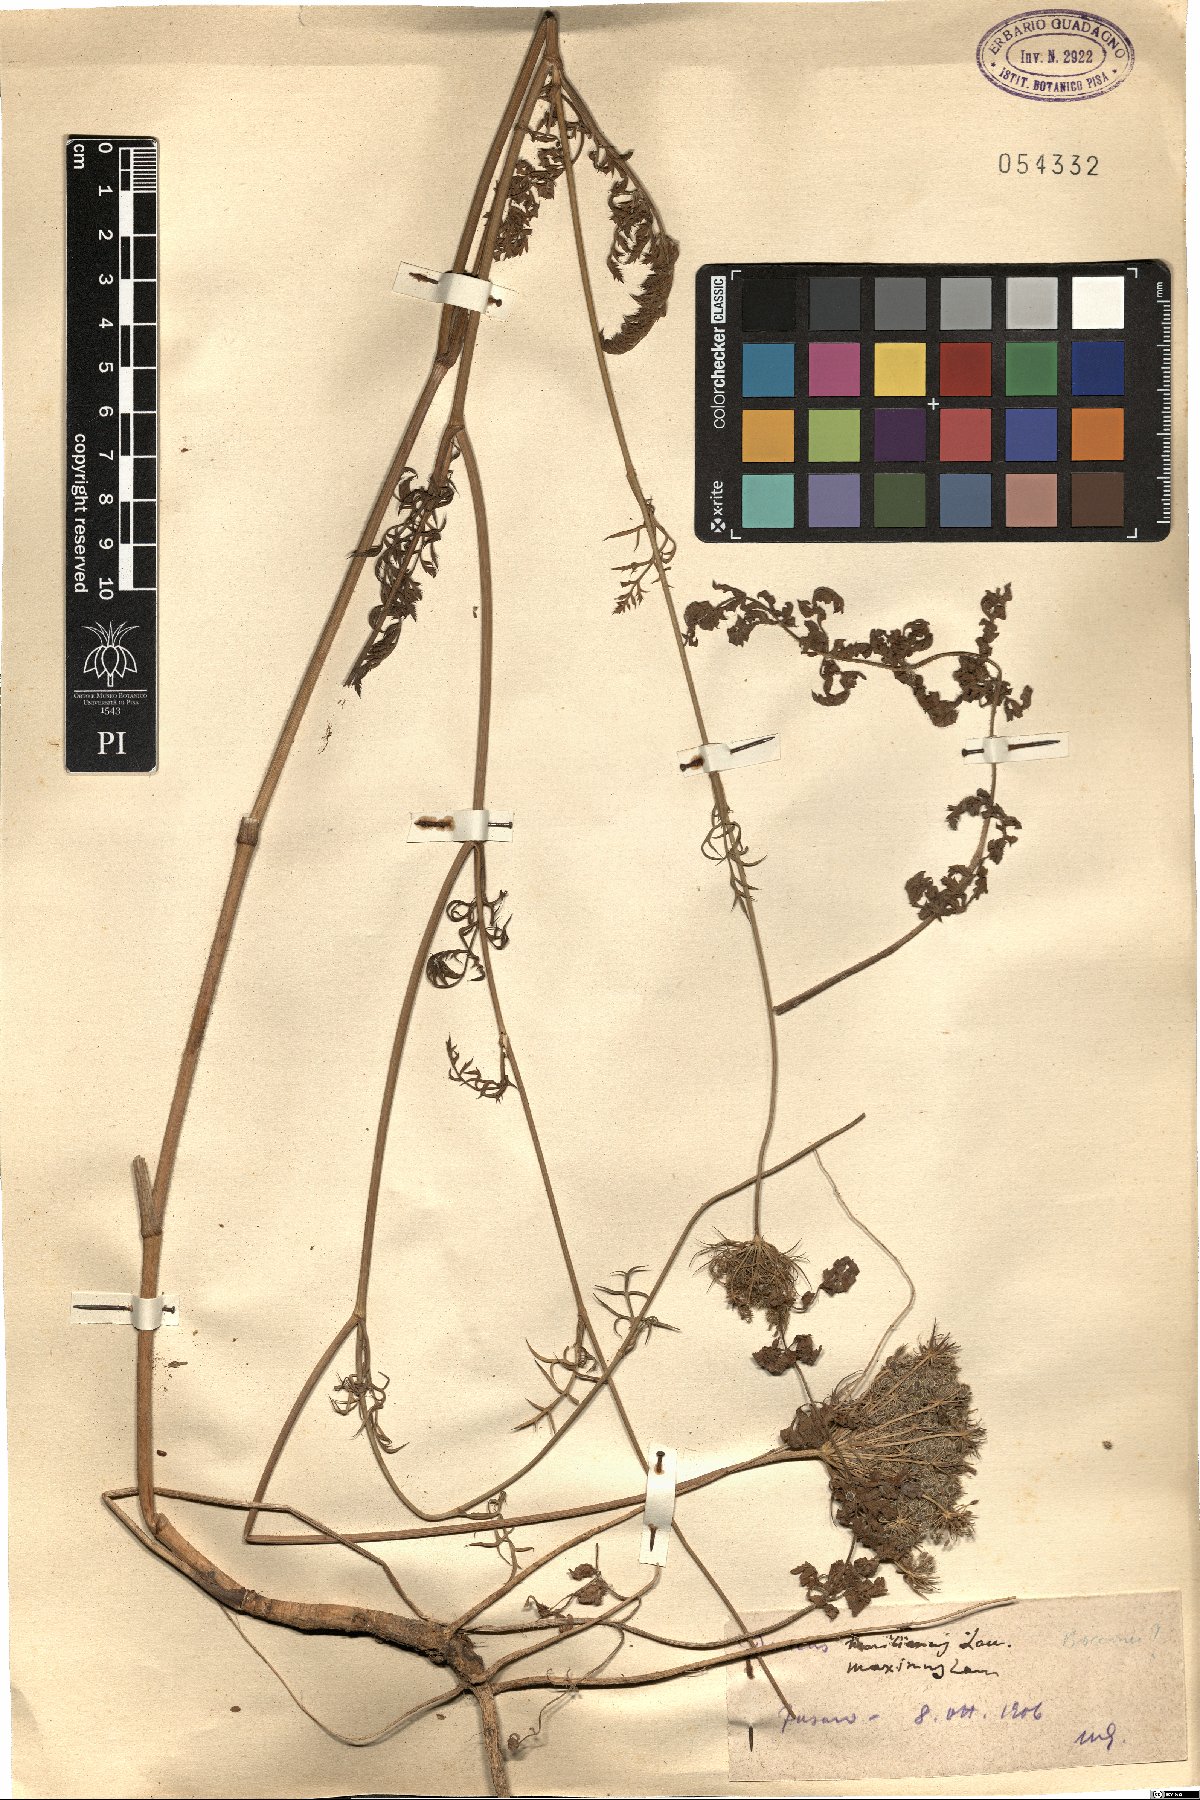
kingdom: Plantae
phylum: Tracheophyta
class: Magnoliopsida
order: Apiales
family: Apiaceae
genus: Daucus
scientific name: Daucus carota
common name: Wild carrot
